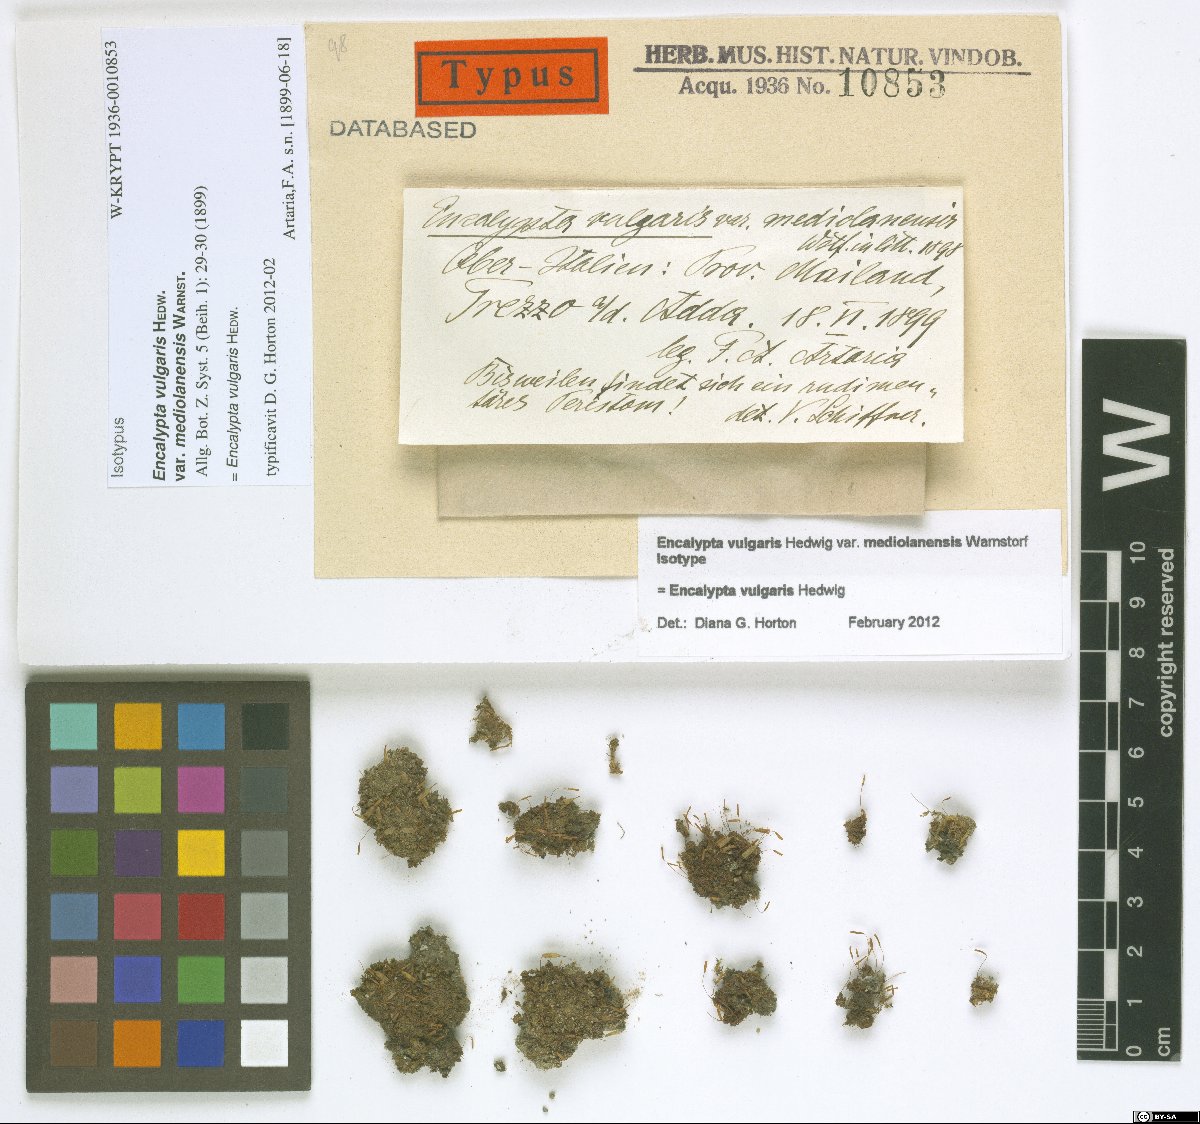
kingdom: Plantae
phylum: Bryophyta
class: Bryopsida
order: Encalyptales
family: Encalyptaceae
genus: Encalypta
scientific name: Encalypta vulgaris
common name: Common extinguisher-moss
